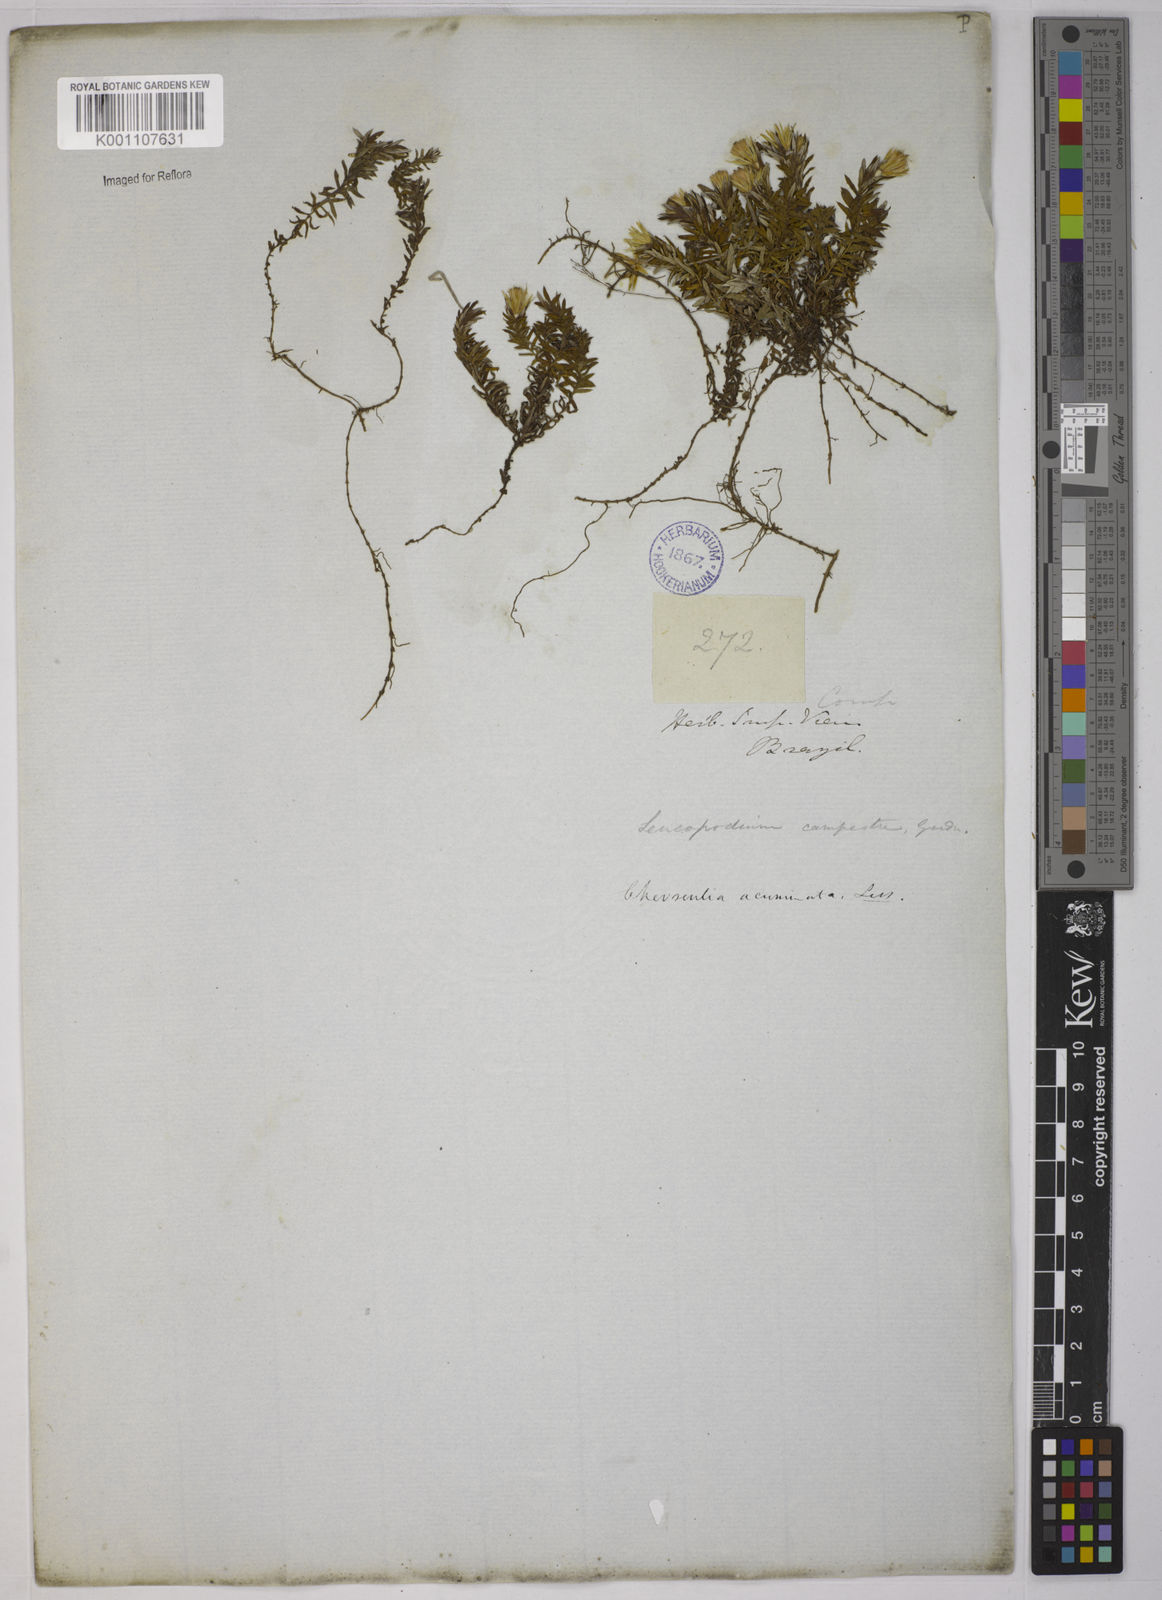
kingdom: Plantae
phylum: Tracheophyta
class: Magnoliopsida
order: Asterales
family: Asteraceae
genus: Chevreulia
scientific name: Chevreulia acuminata
